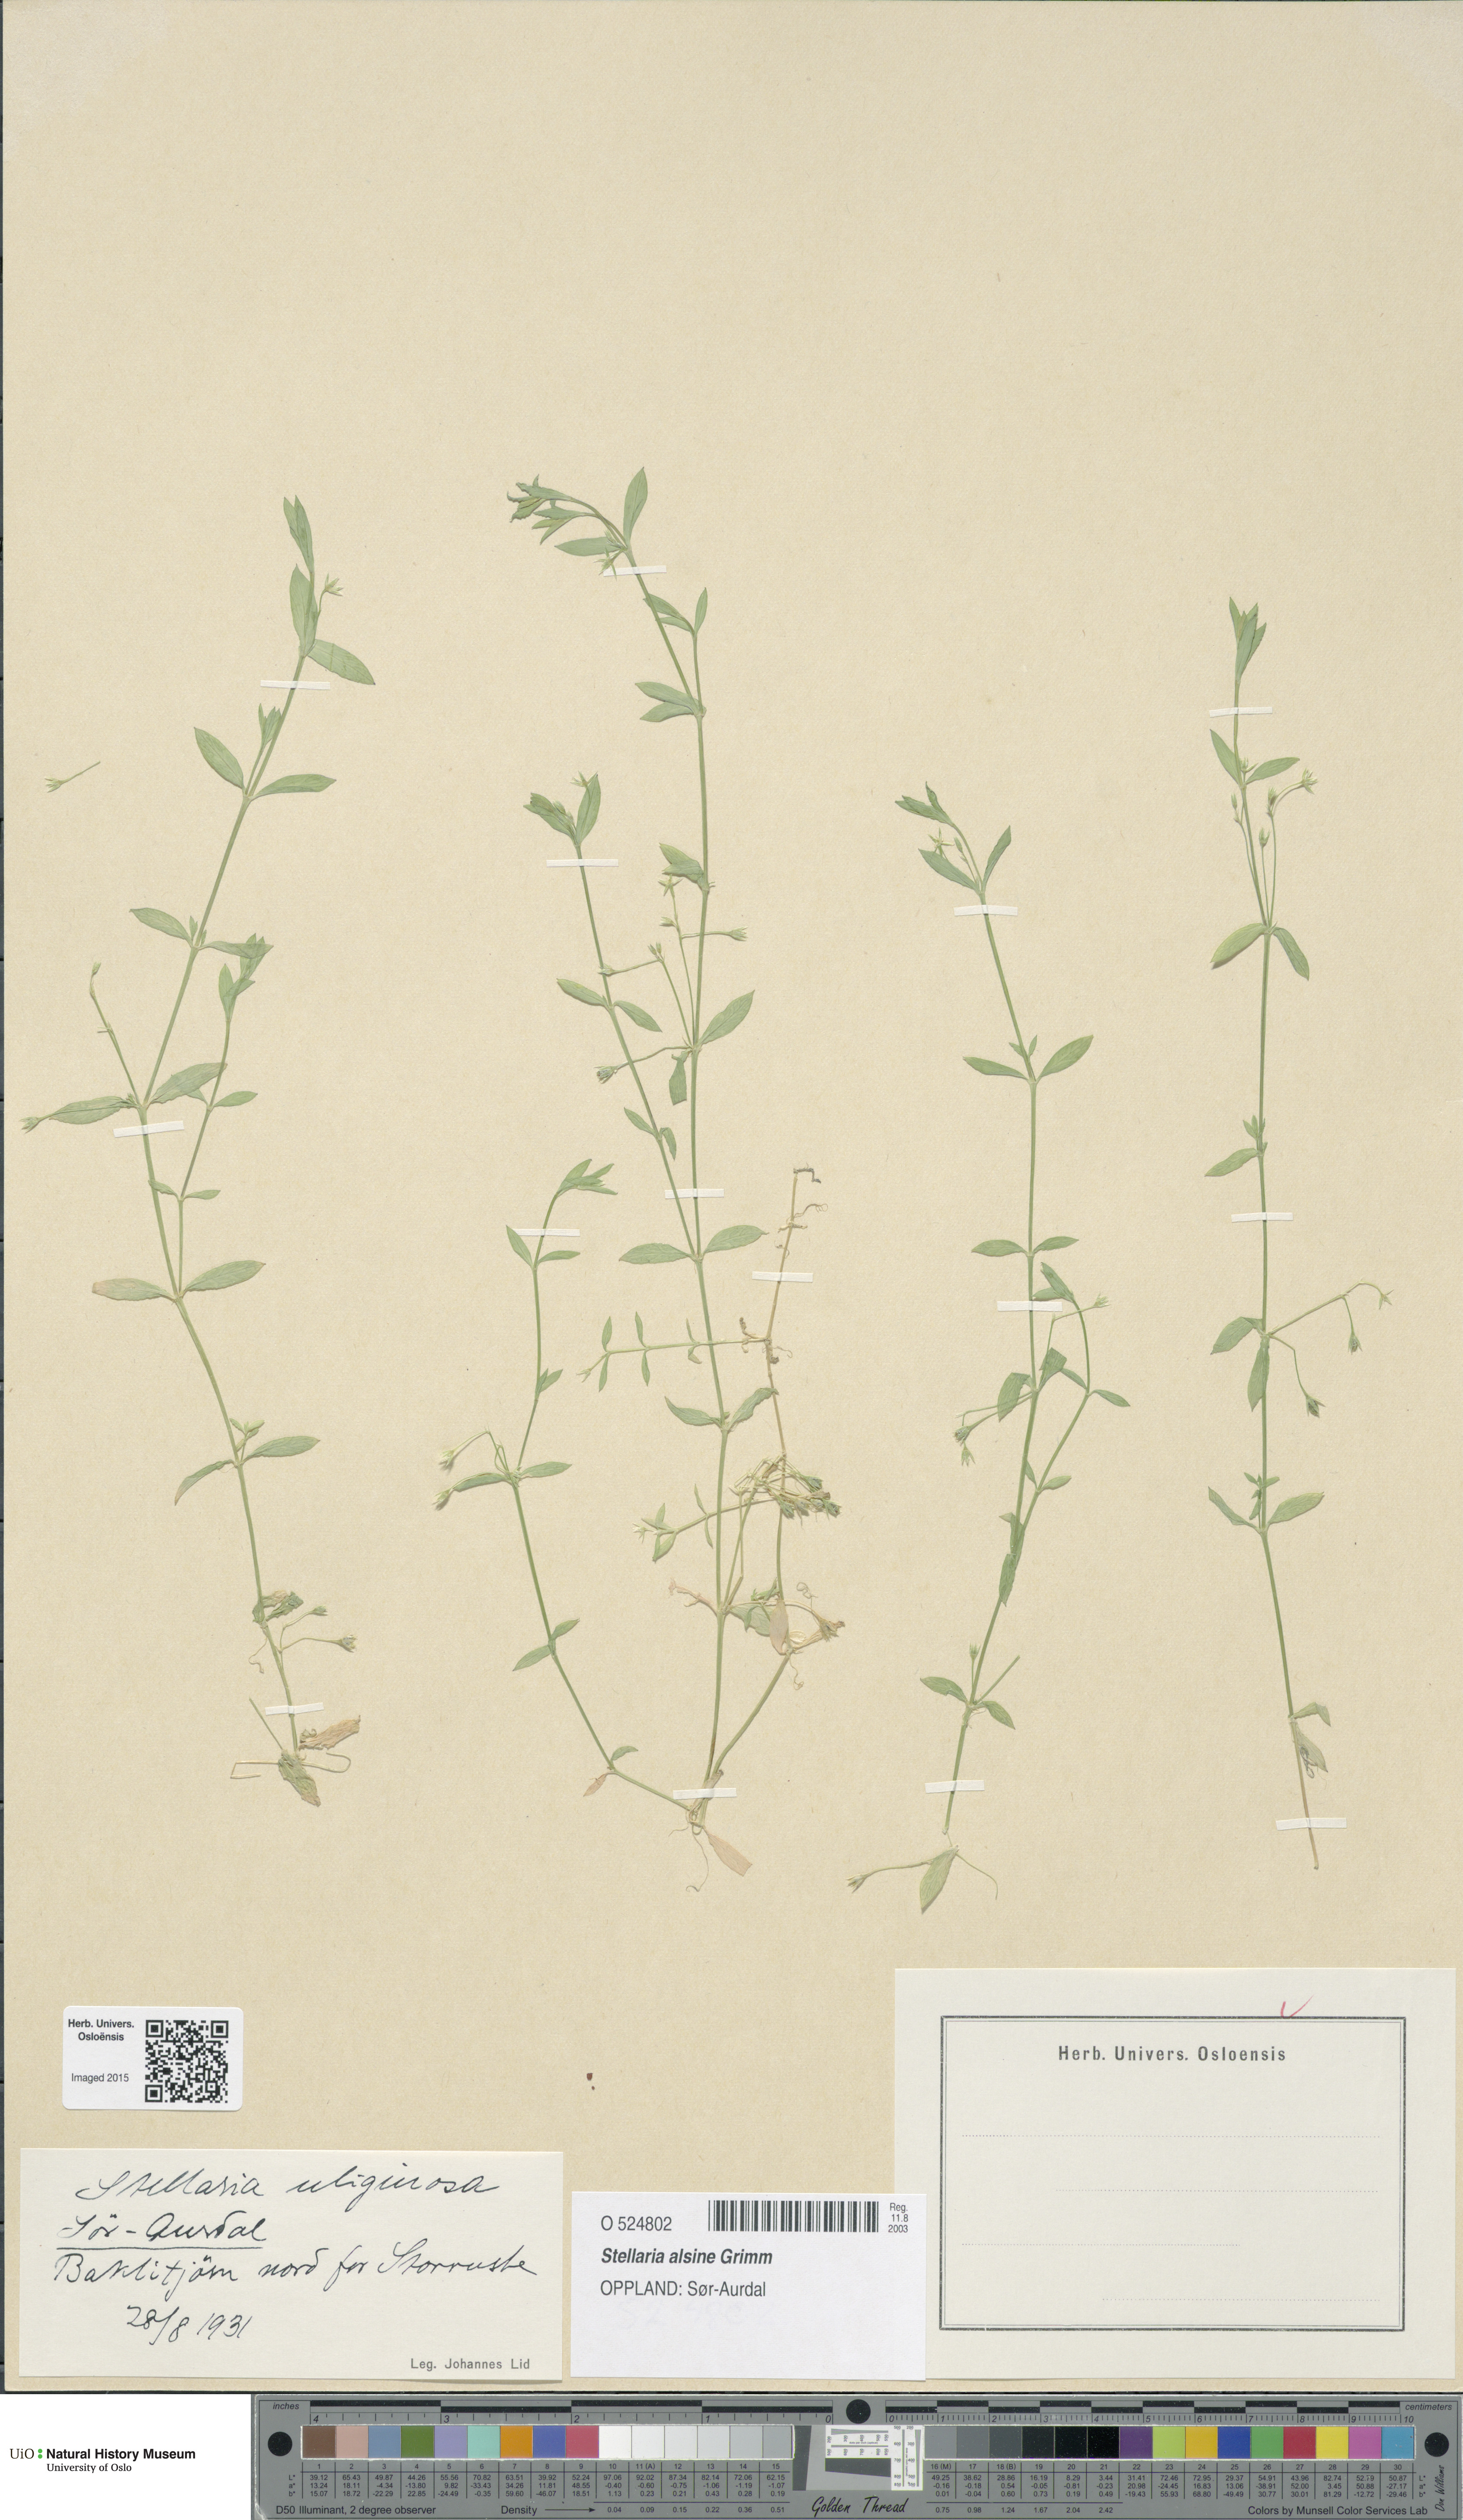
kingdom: Plantae
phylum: Tracheophyta
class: Magnoliopsida
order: Caryophyllales
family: Caryophyllaceae
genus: Stellaria
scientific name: Stellaria alsine
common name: Bog stitchwort
